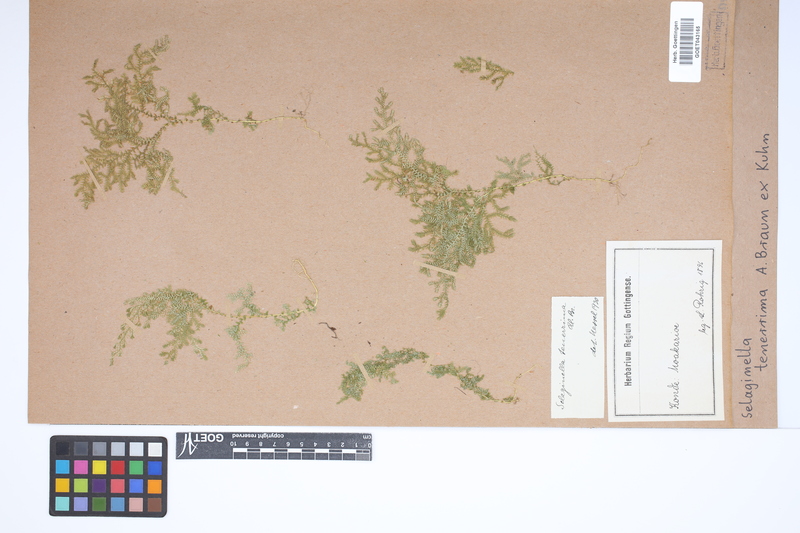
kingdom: Plantae
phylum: Tracheophyta
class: Lycopodiopsida
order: Selaginellales
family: Selaginellaceae
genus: Selaginella
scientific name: Selaginella tenerrima
